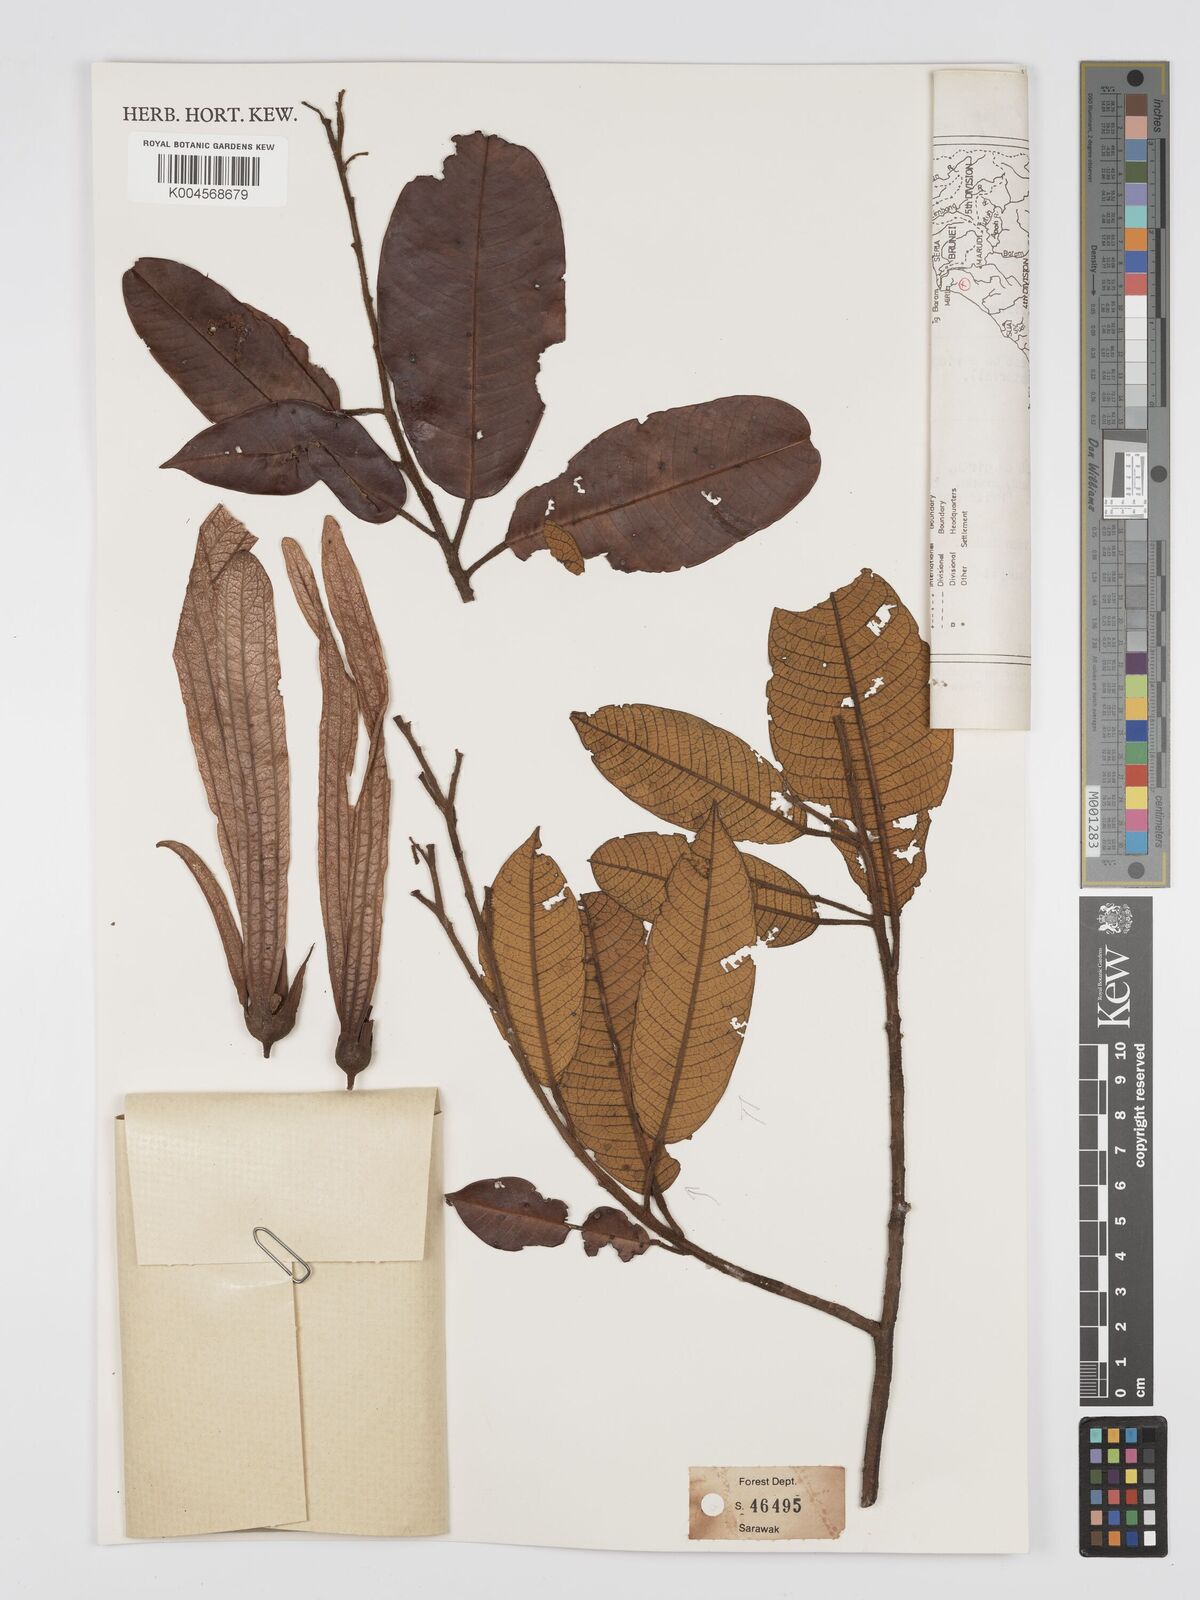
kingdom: Plantae
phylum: Tracheophyta
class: Magnoliopsida
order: Malvales
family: Dipterocarpaceae
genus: Anisoptera
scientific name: Anisoptera grossivenia
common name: Krabak
